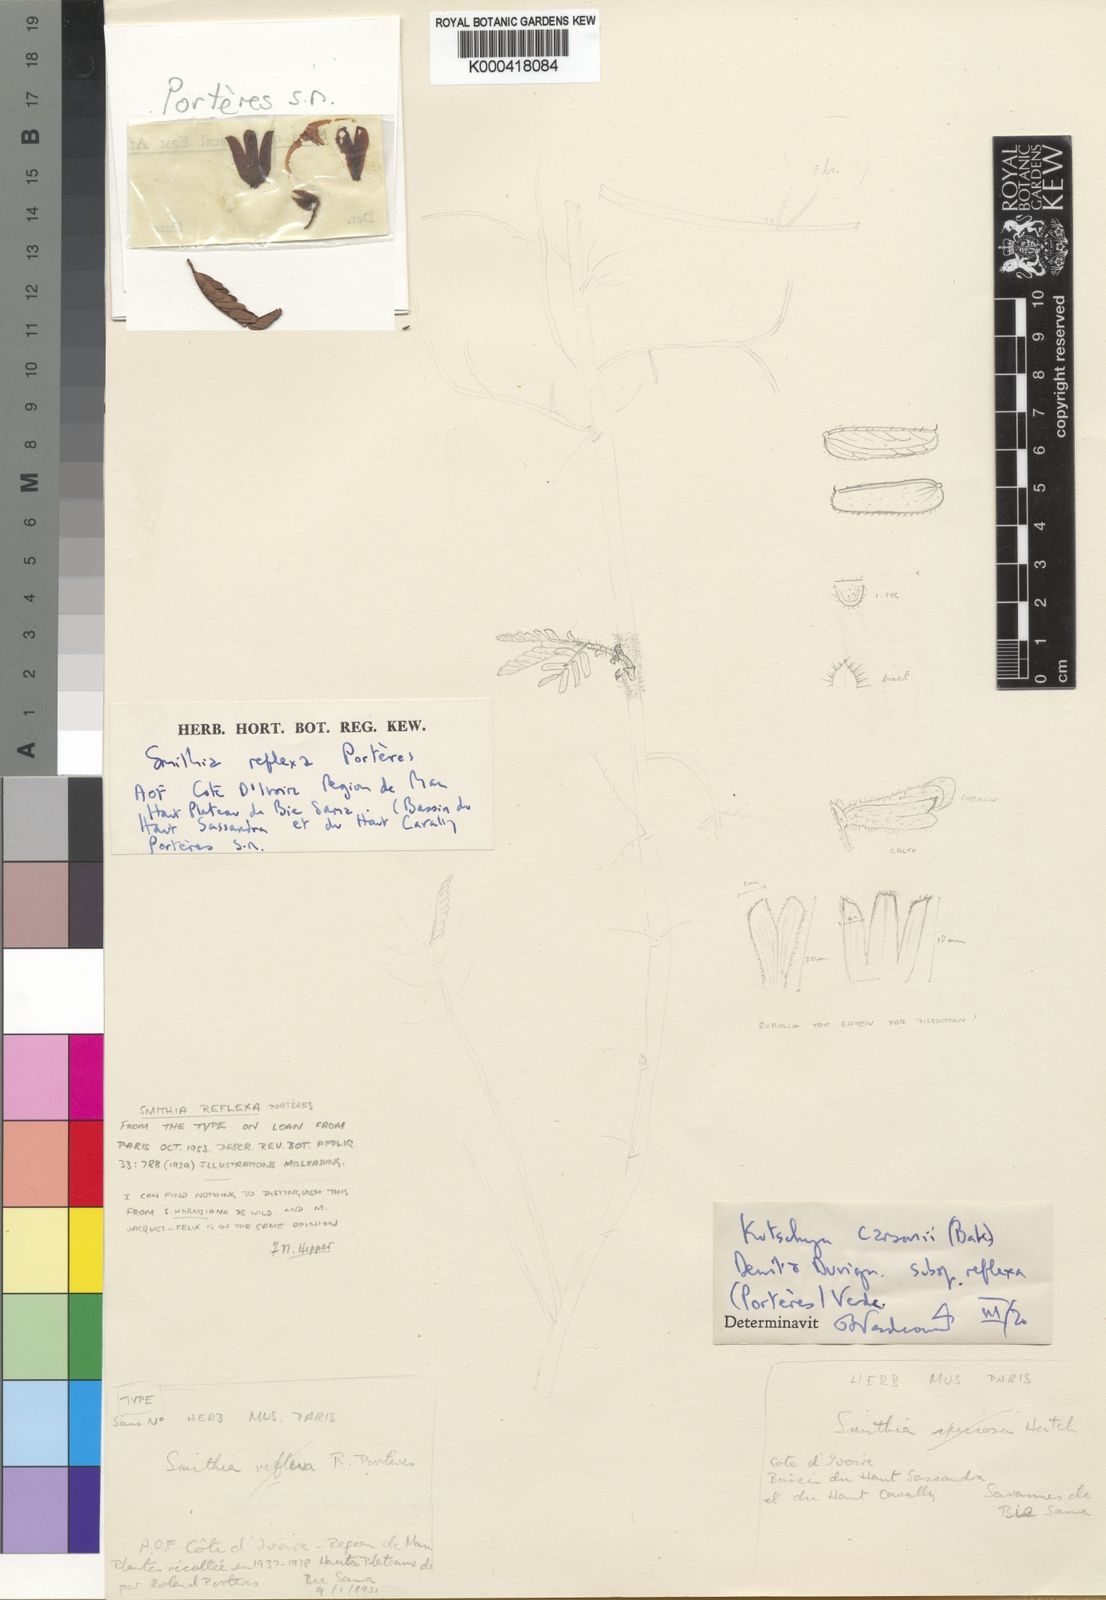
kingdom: Plantae
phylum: Tracheophyta
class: Magnoliopsida
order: Fabales
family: Fabaceae
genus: Kotschya
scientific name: Kotschya carsonii
